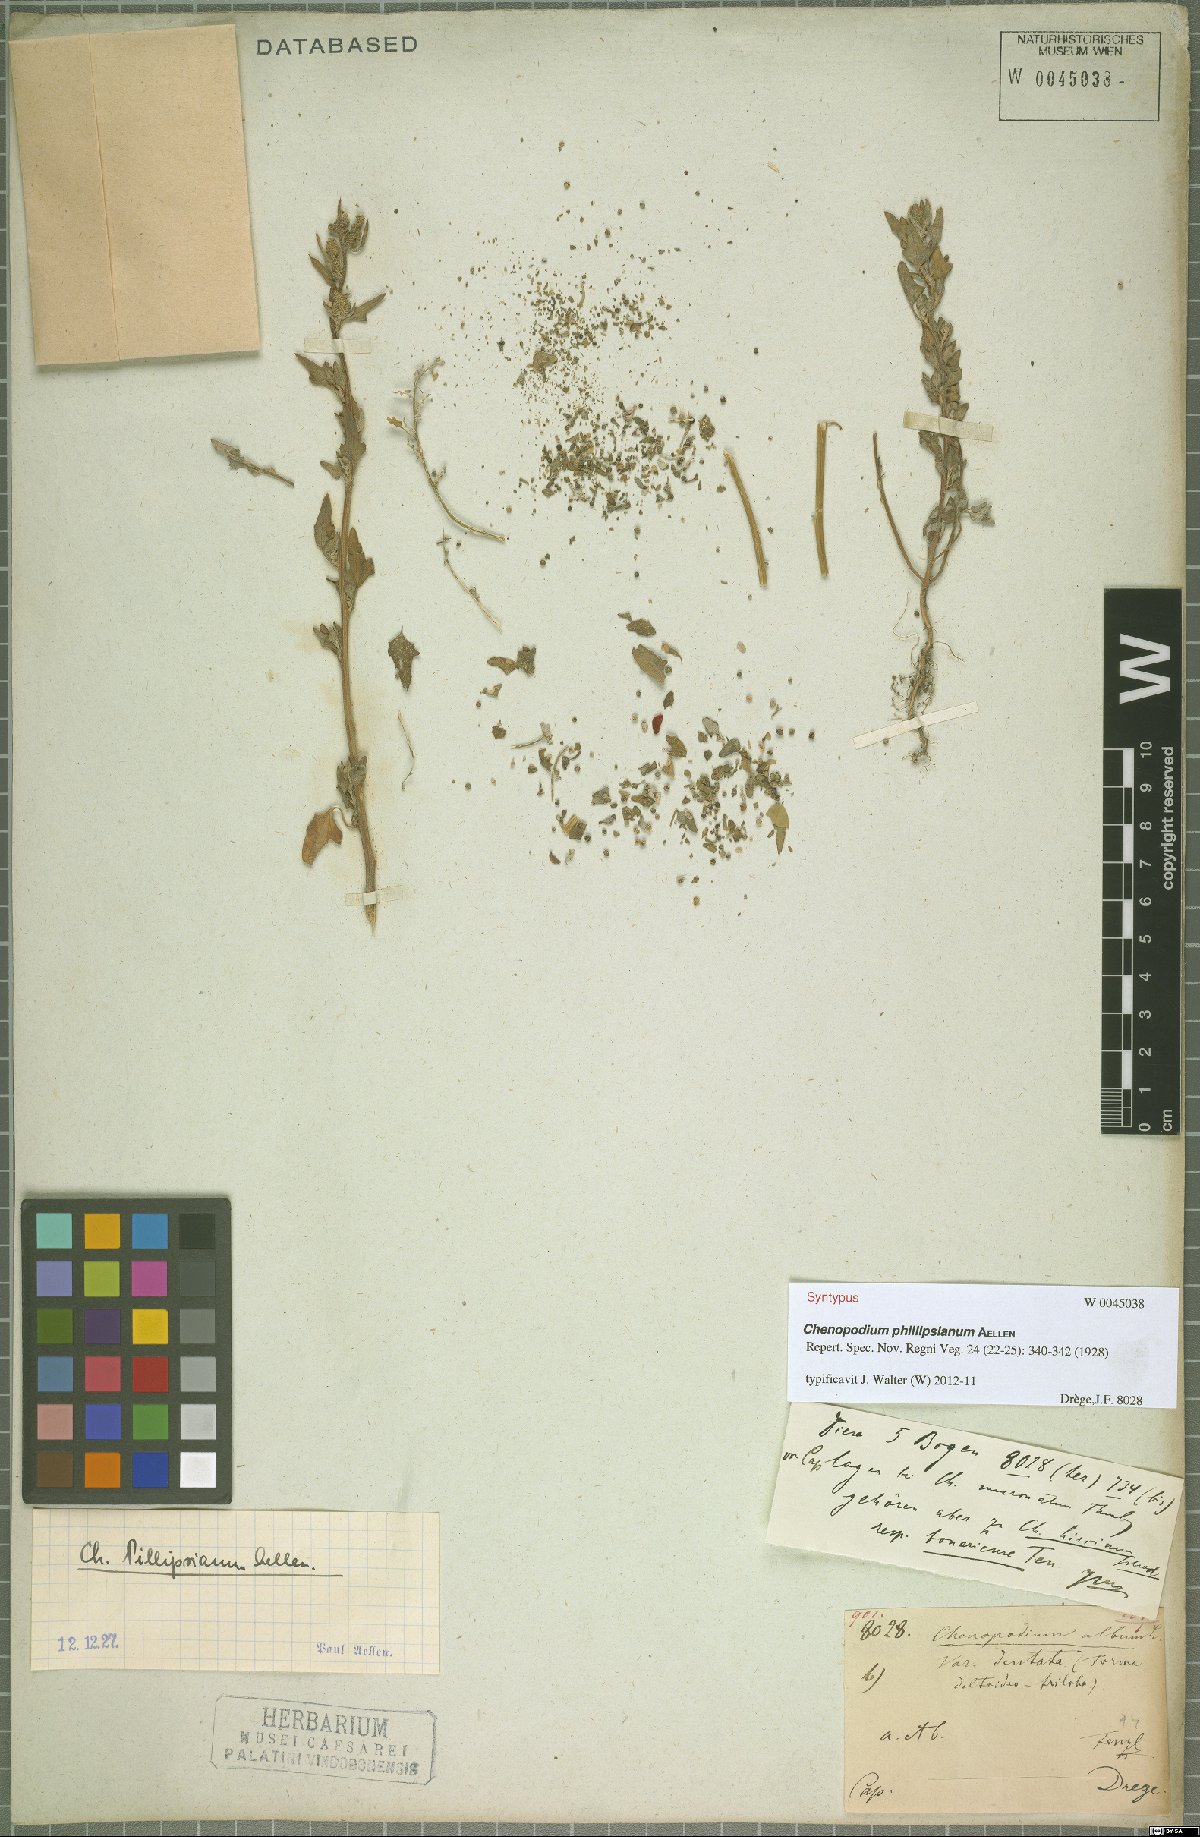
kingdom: Plantae
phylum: Tracheophyta
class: Magnoliopsida
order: Caryophyllales
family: Amaranthaceae
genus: Chenopodium
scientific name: Chenopodium phillipsianum
